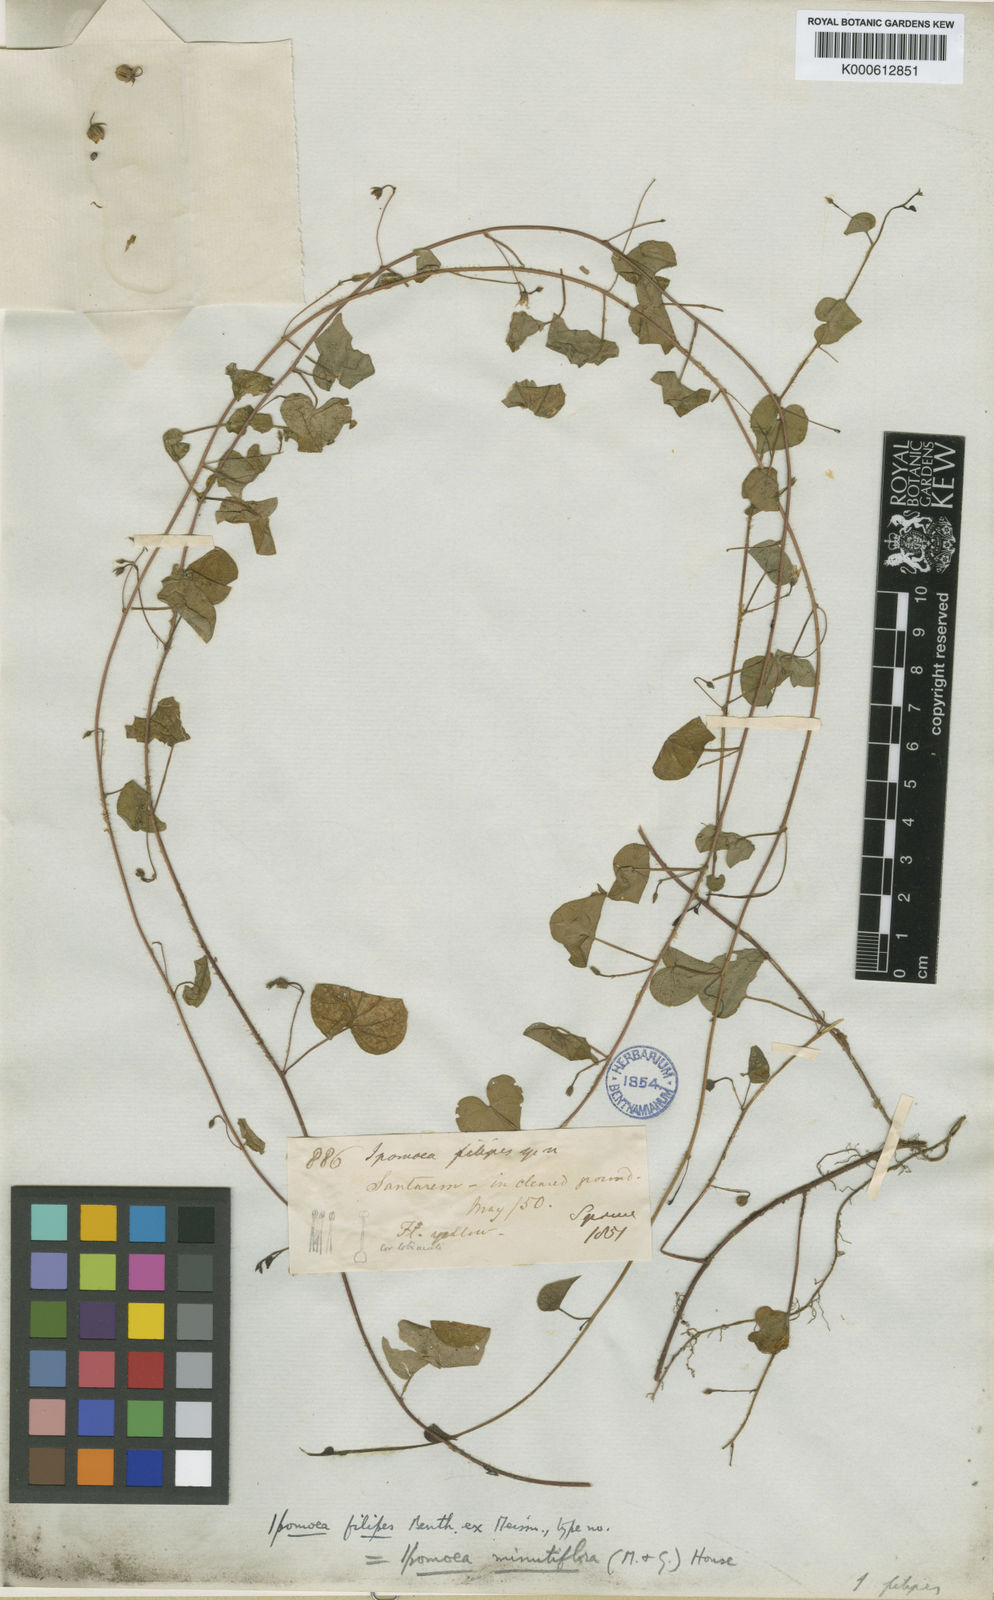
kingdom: Plantae
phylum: Tracheophyta
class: Magnoliopsida
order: Solanales
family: Convolvulaceae
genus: Ipomoea
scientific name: Ipomoea minutiflora
